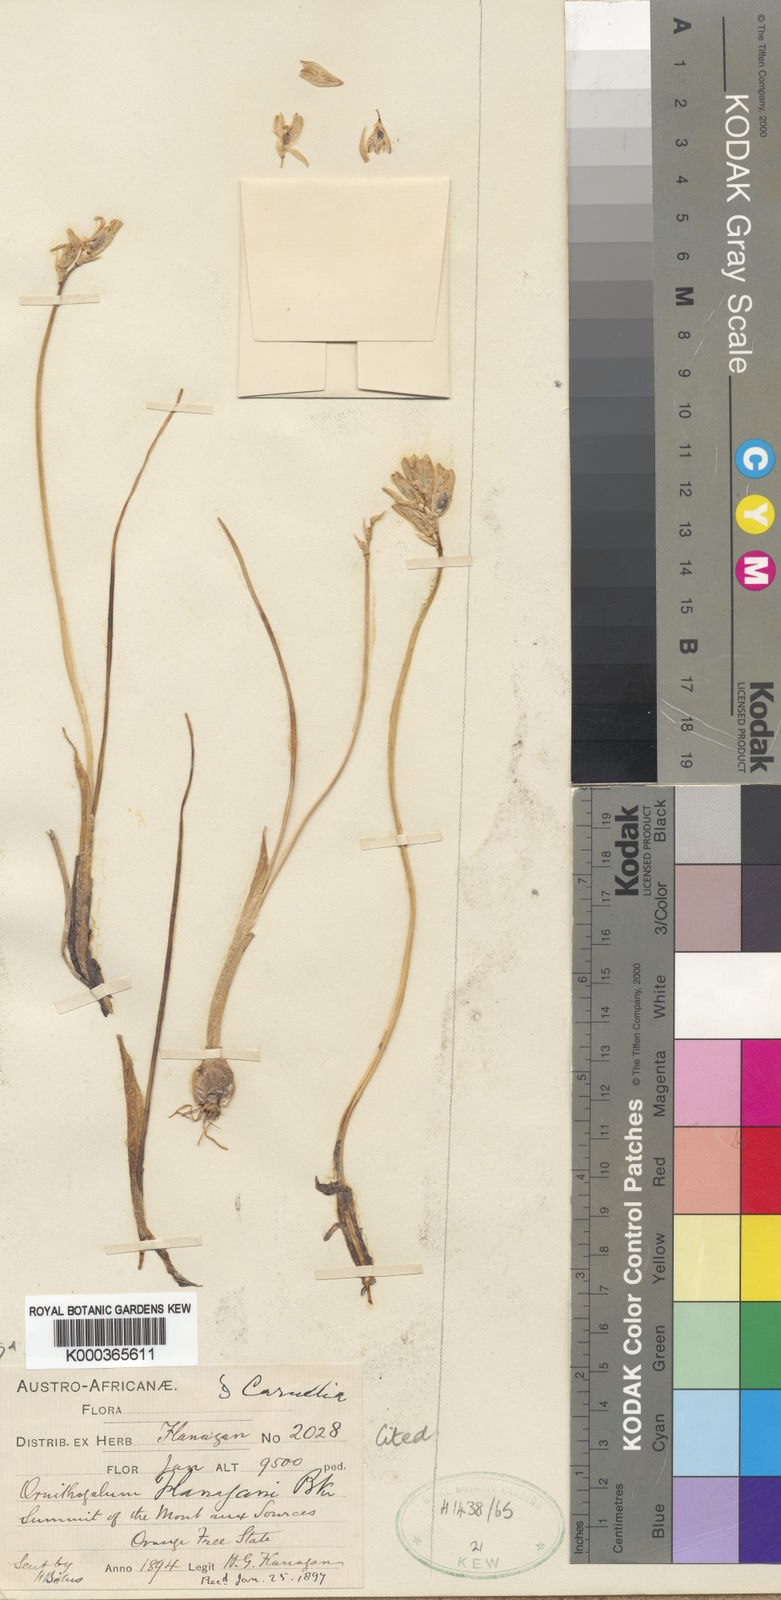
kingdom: Plantae
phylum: Tracheophyta
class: Liliopsida
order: Asparagales
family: Asparagaceae
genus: Ornithogalum
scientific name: Ornithogalum paludosum
